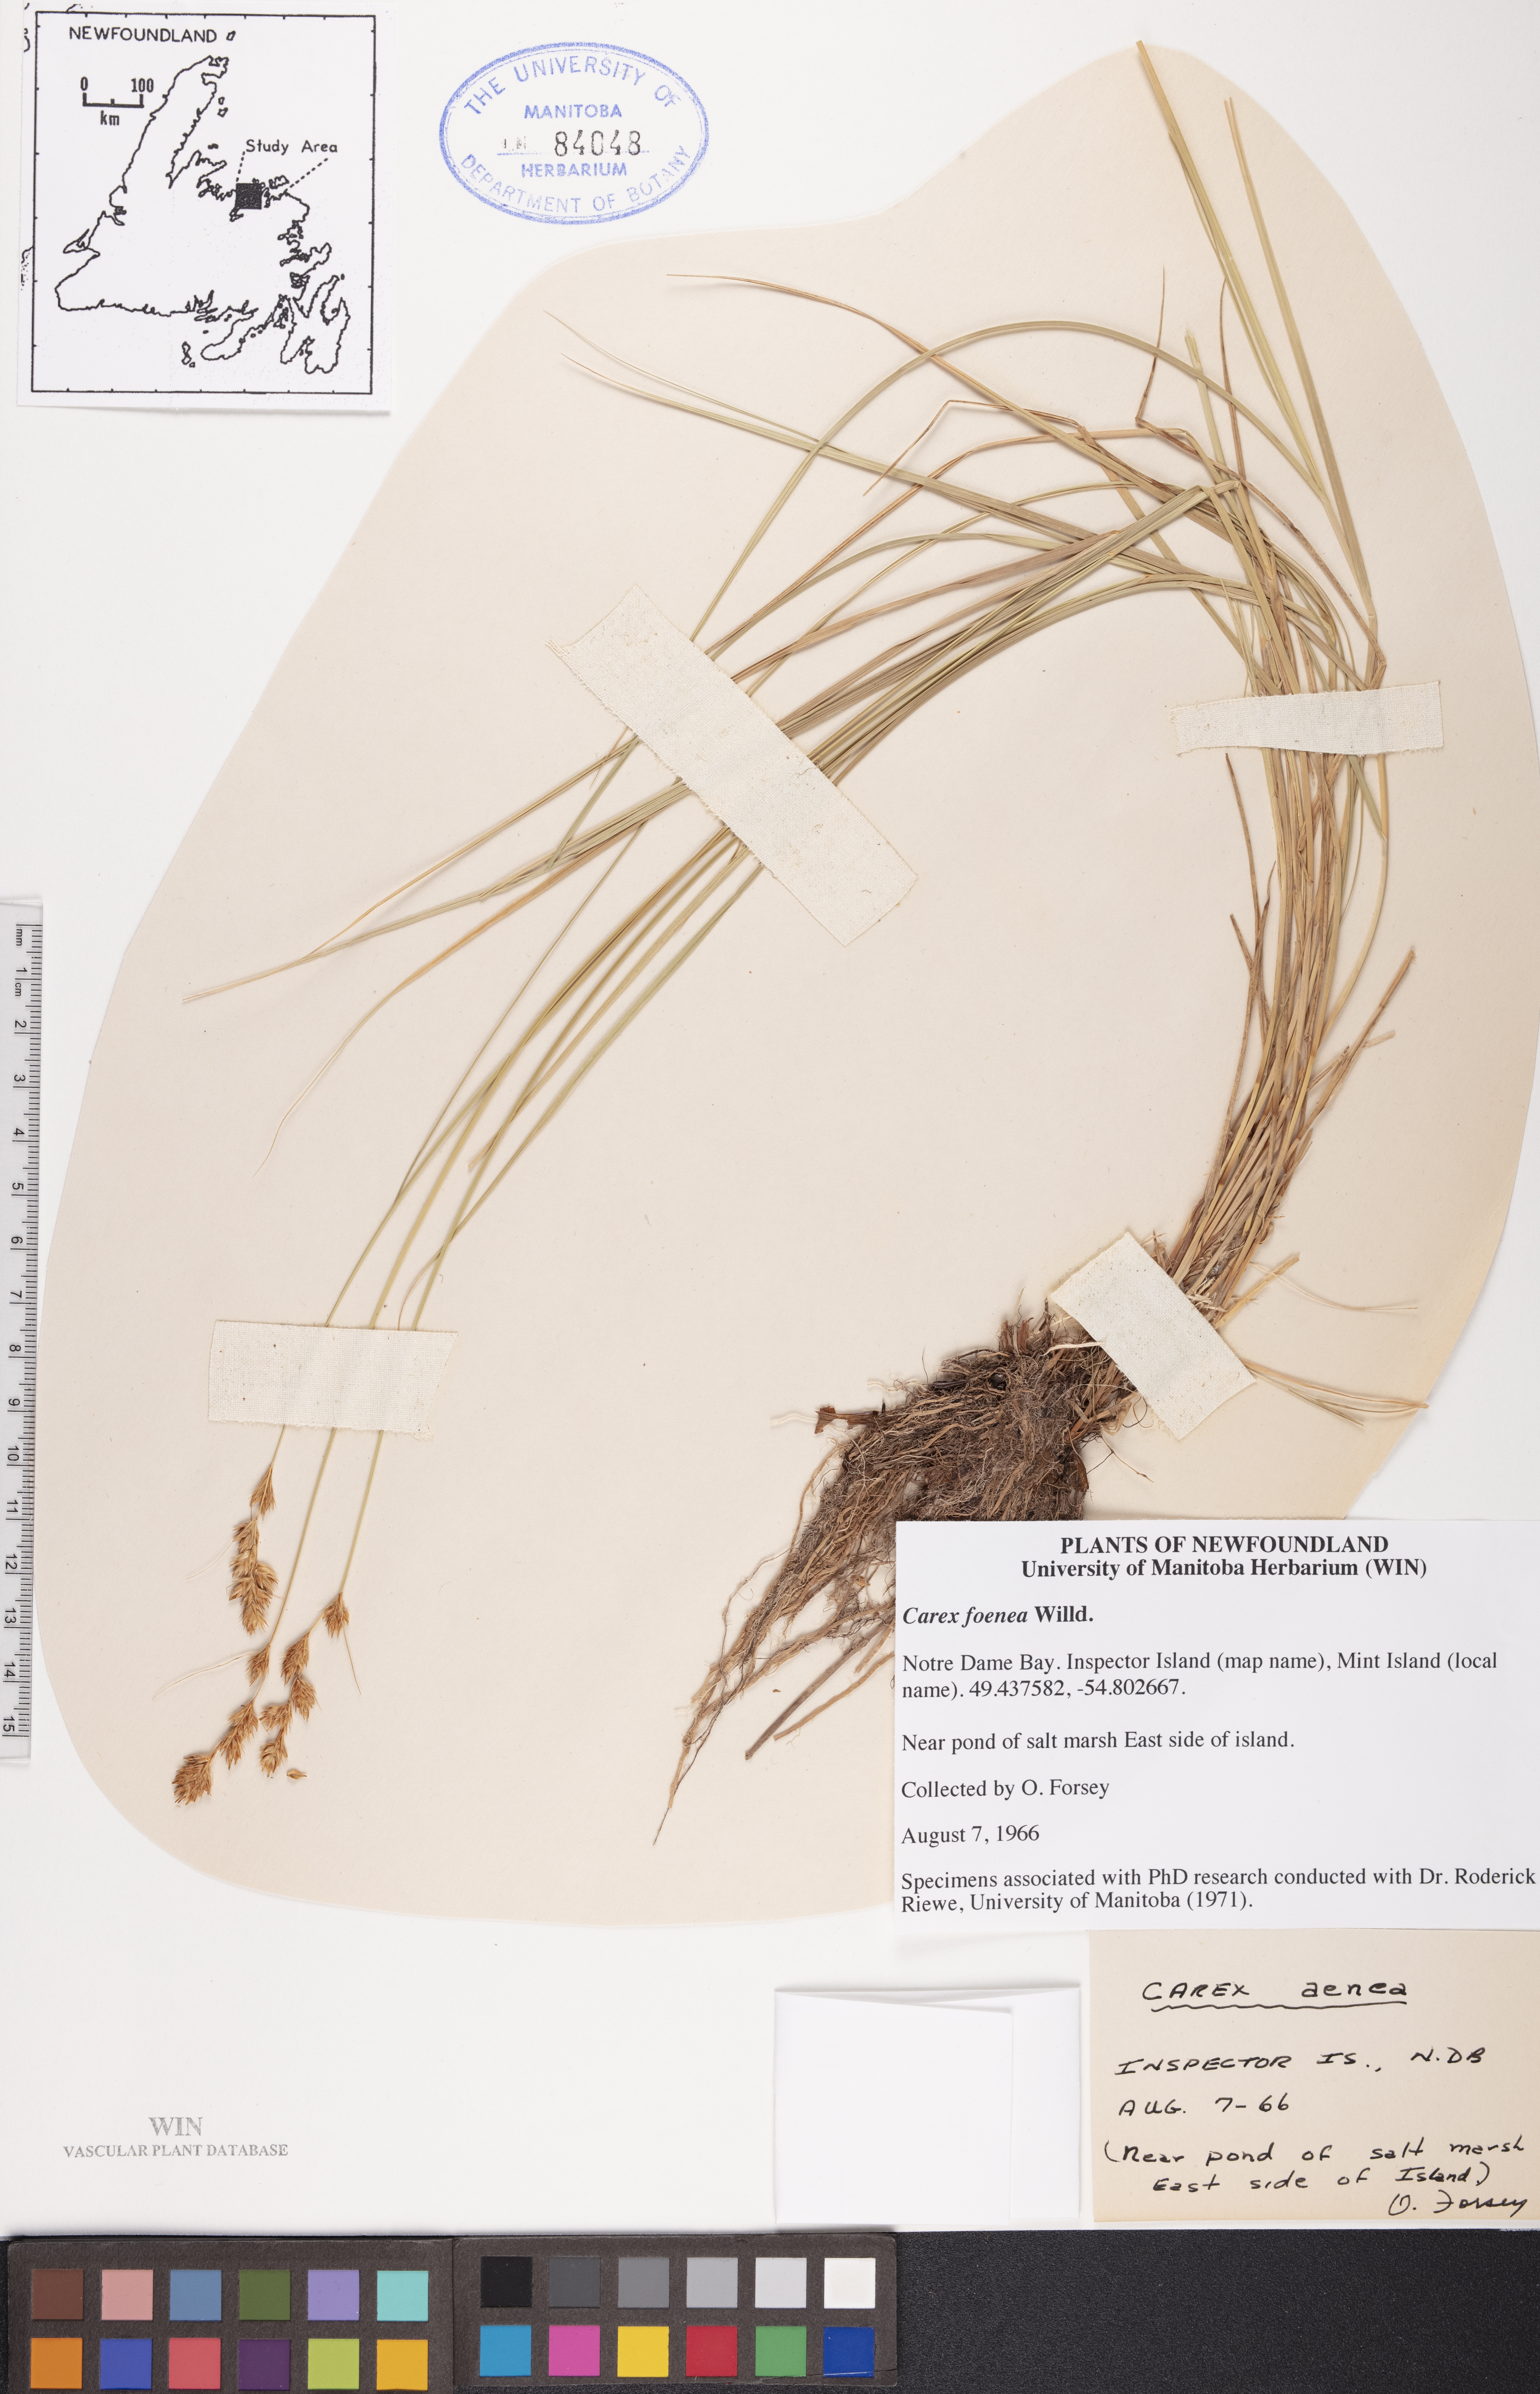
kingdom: Plantae
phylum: Tracheophyta
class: Liliopsida
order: Poales
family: Cyperaceae
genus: Carex
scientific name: Carex foenea
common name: Bronze sedge
